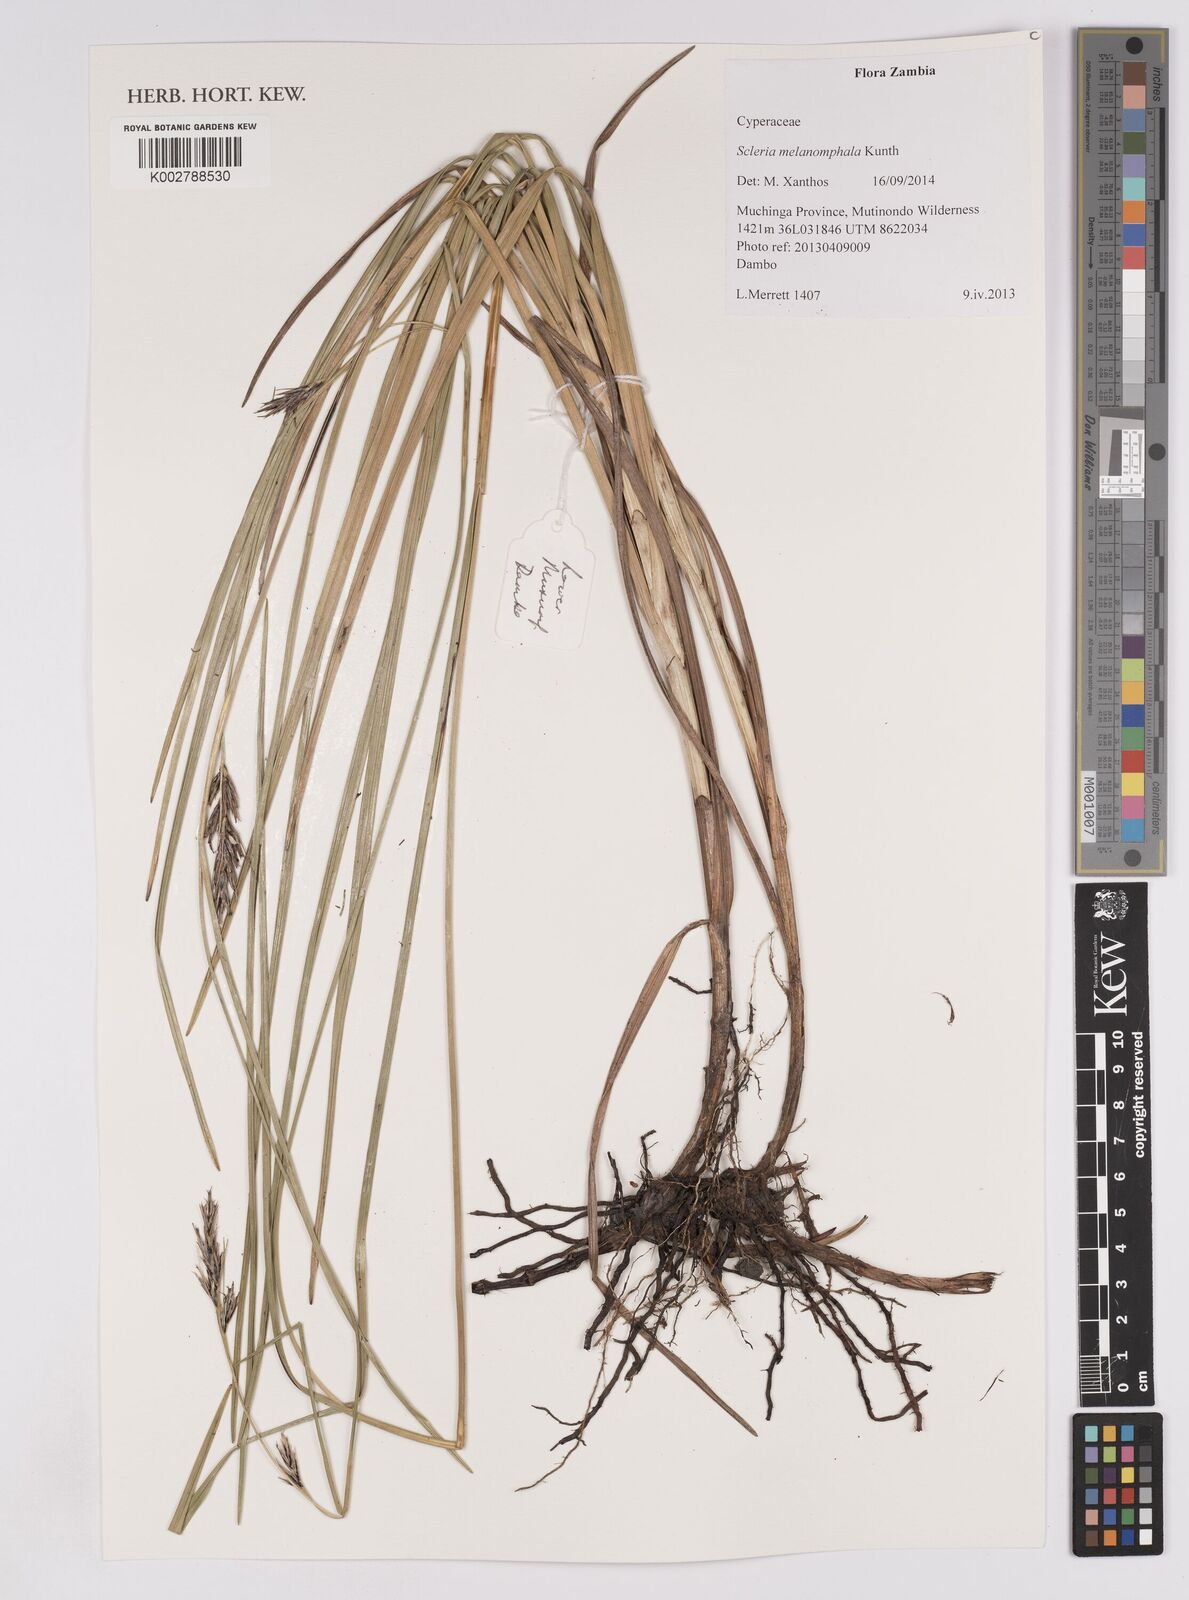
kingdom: Plantae
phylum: Tracheophyta
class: Liliopsida
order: Poales
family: Cyperaceae
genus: Scleria
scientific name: Scleria melanomphala
